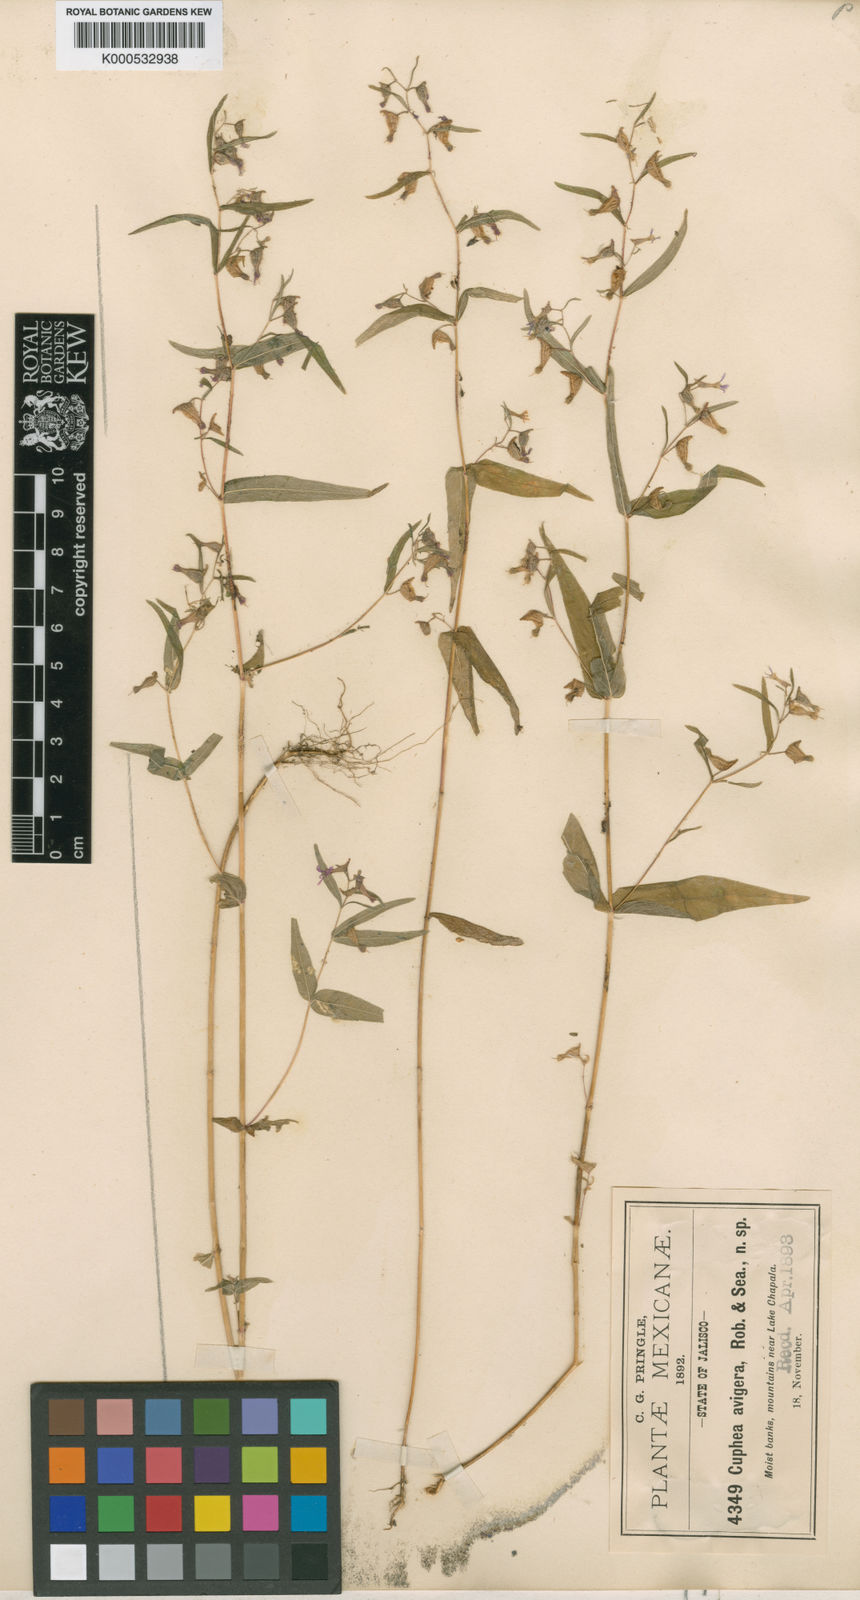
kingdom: Plantae
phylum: Tracheophyta
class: Magnoliopsida
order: Myrtales
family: Lythraceae
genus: Cuphea
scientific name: Cuphea avigera
